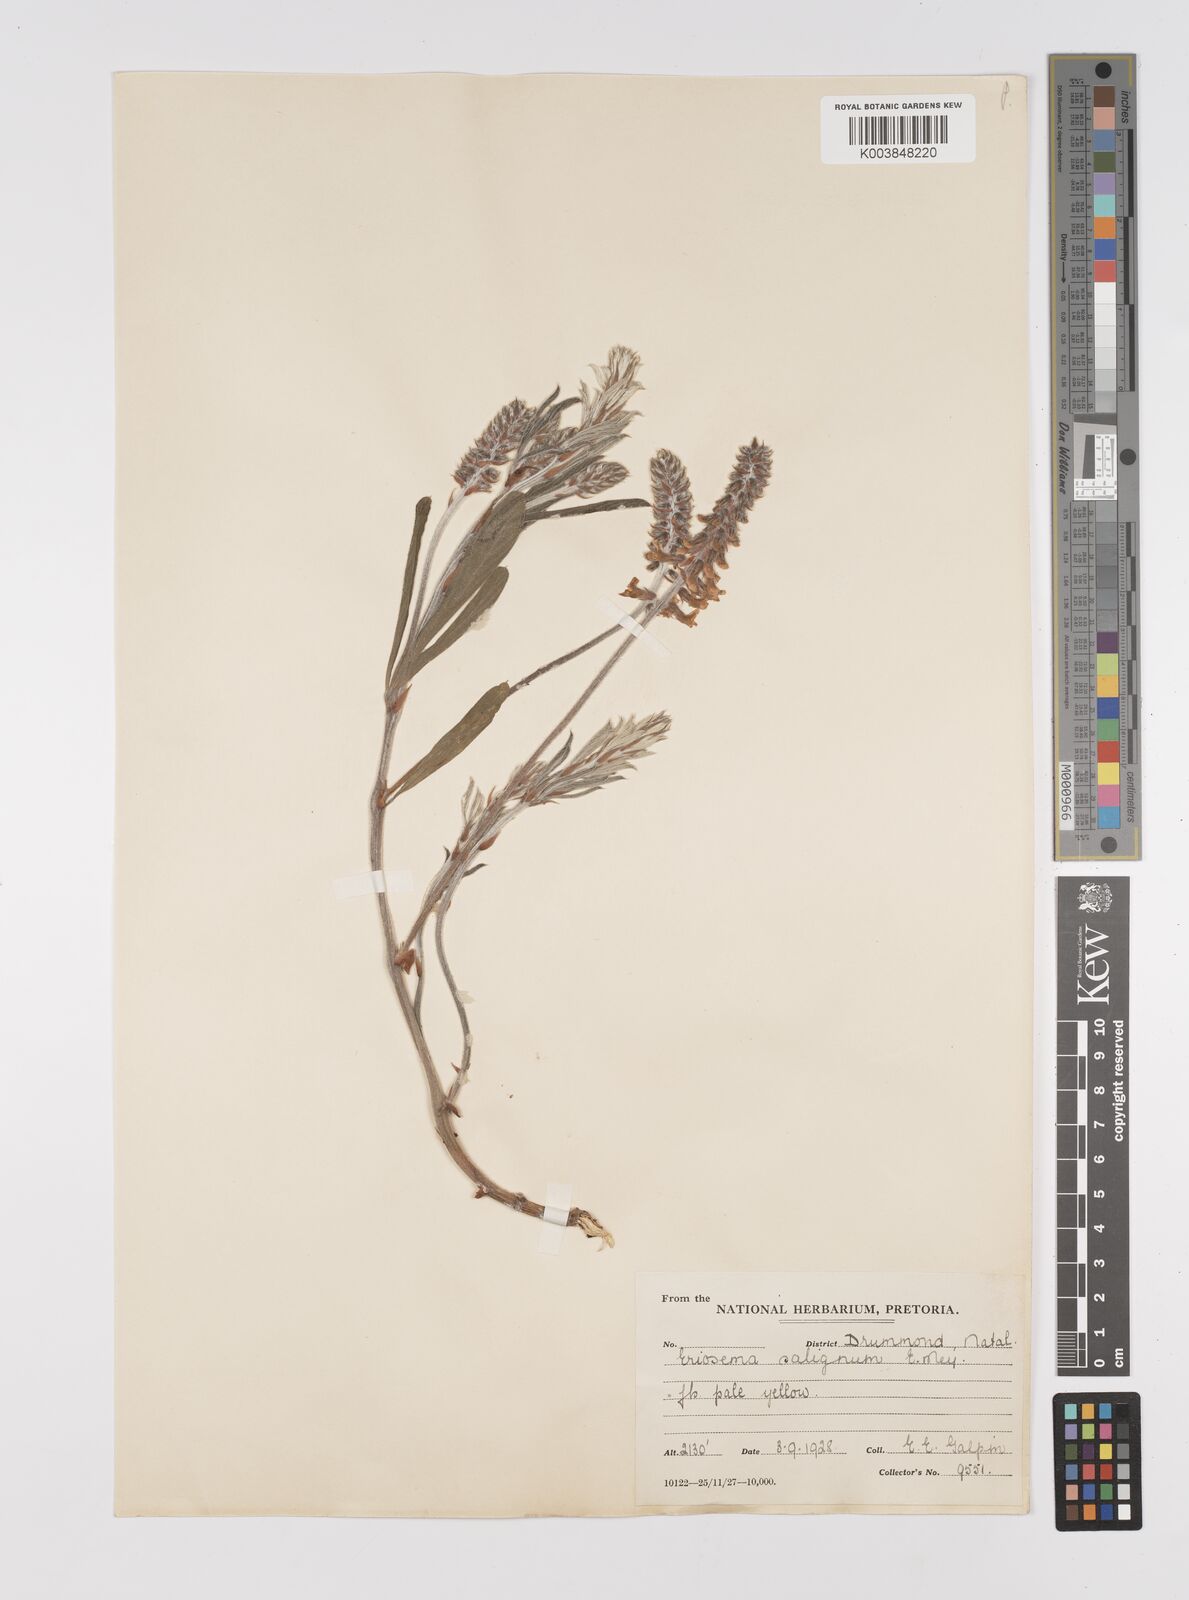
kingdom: Plantae
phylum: Tracheophyta
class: Magnoliopsida
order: Fabales
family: Fabaceae
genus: Eriosema
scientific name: Eriosema kraussianum
